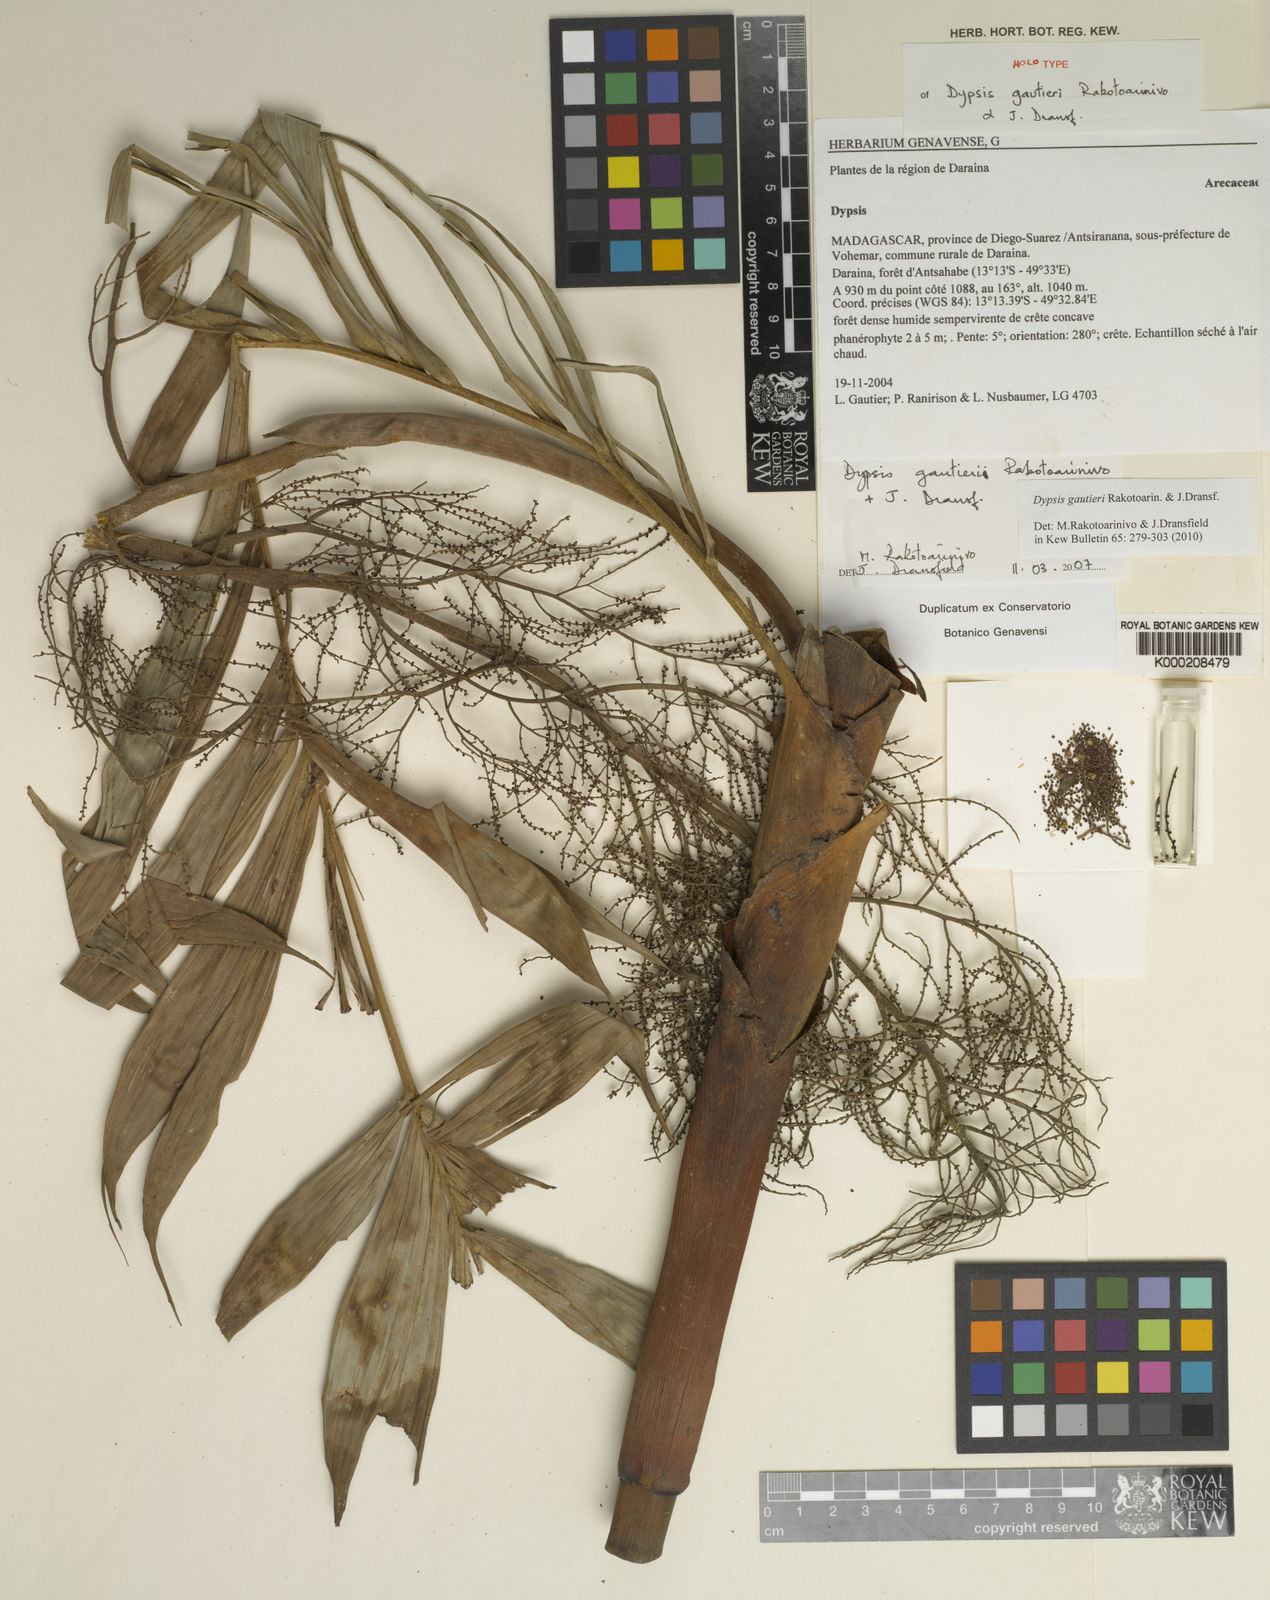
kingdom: Plantae
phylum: Tracheophyta
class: Liliopsida
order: Arecales
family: Arecaceae
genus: Dypsis
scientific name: Dypsis gautieri
